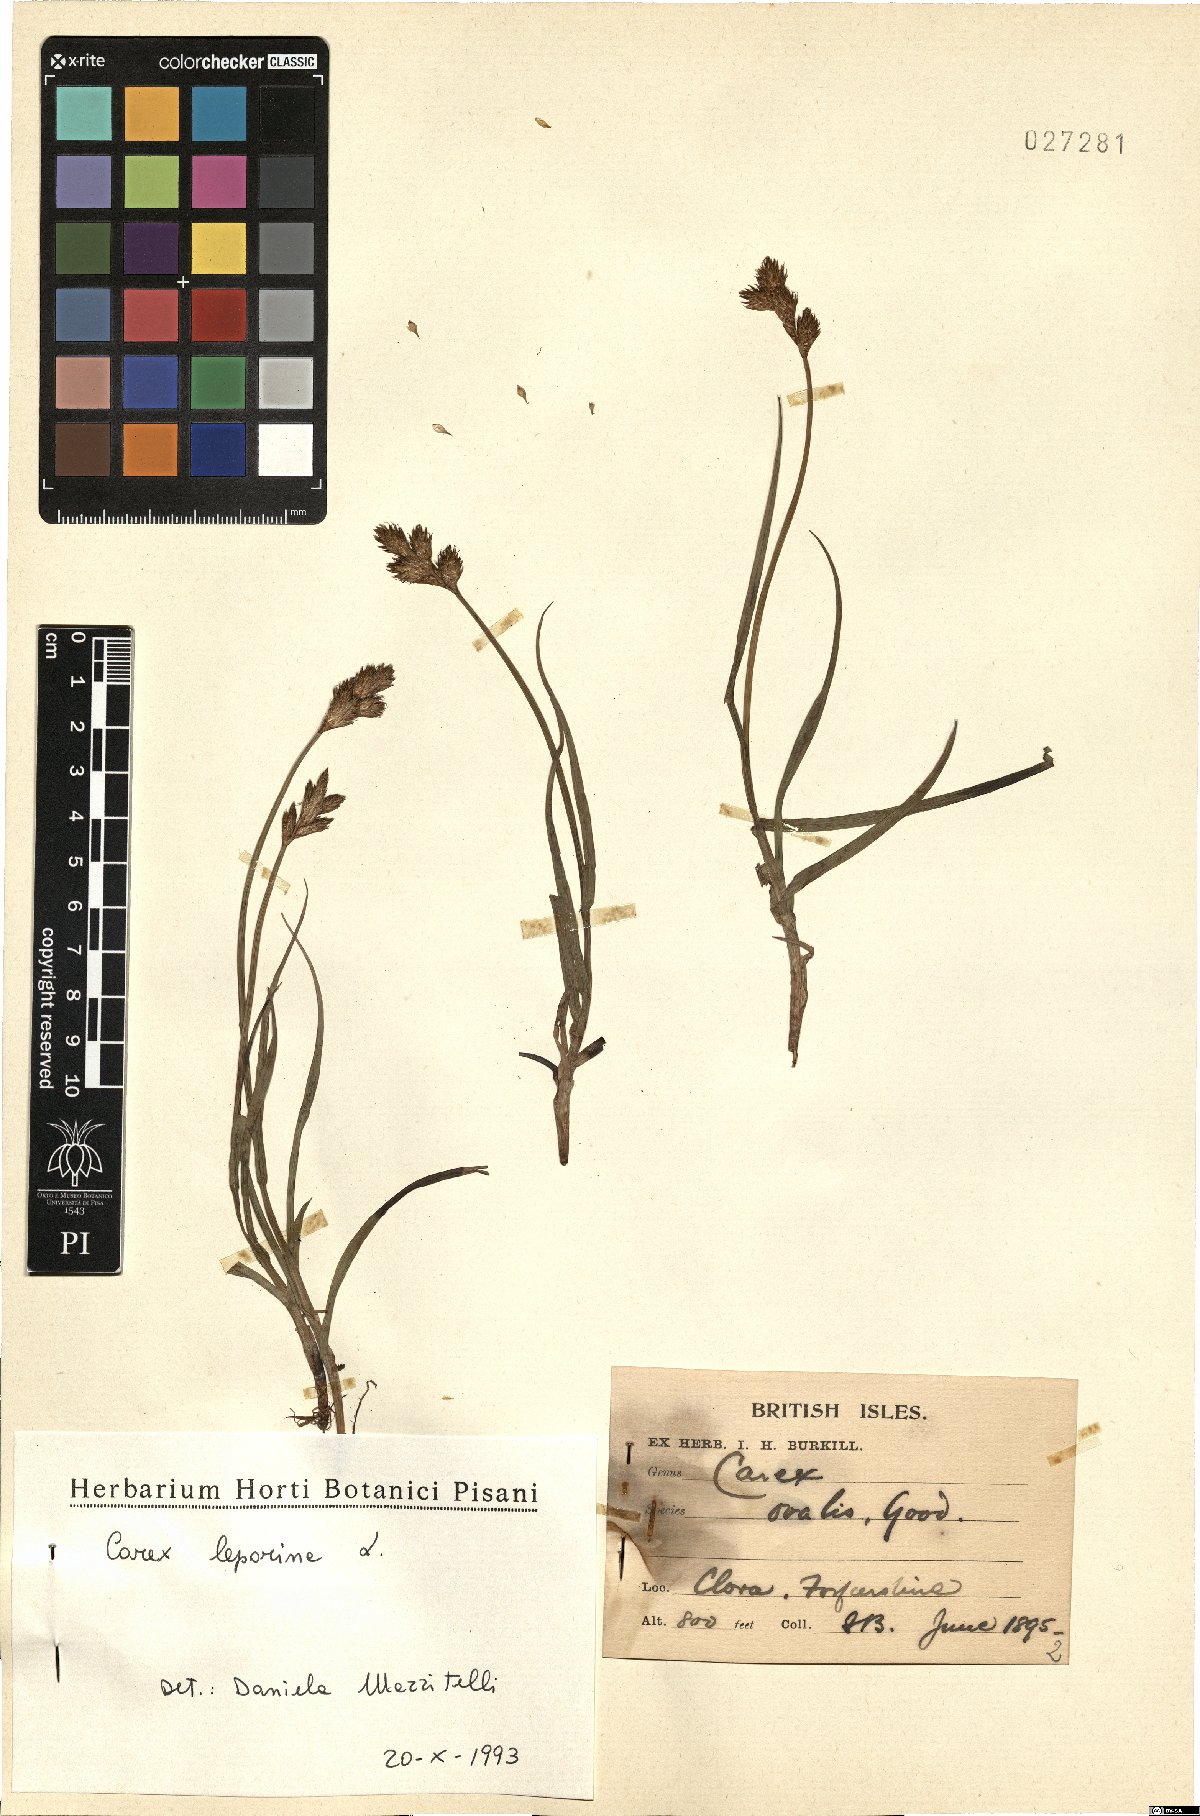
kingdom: Plantae
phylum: Tracheophyta
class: Liliopsida
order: Poales
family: Cyperaceae
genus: Carex
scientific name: Carex leporina
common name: Oval sedge
